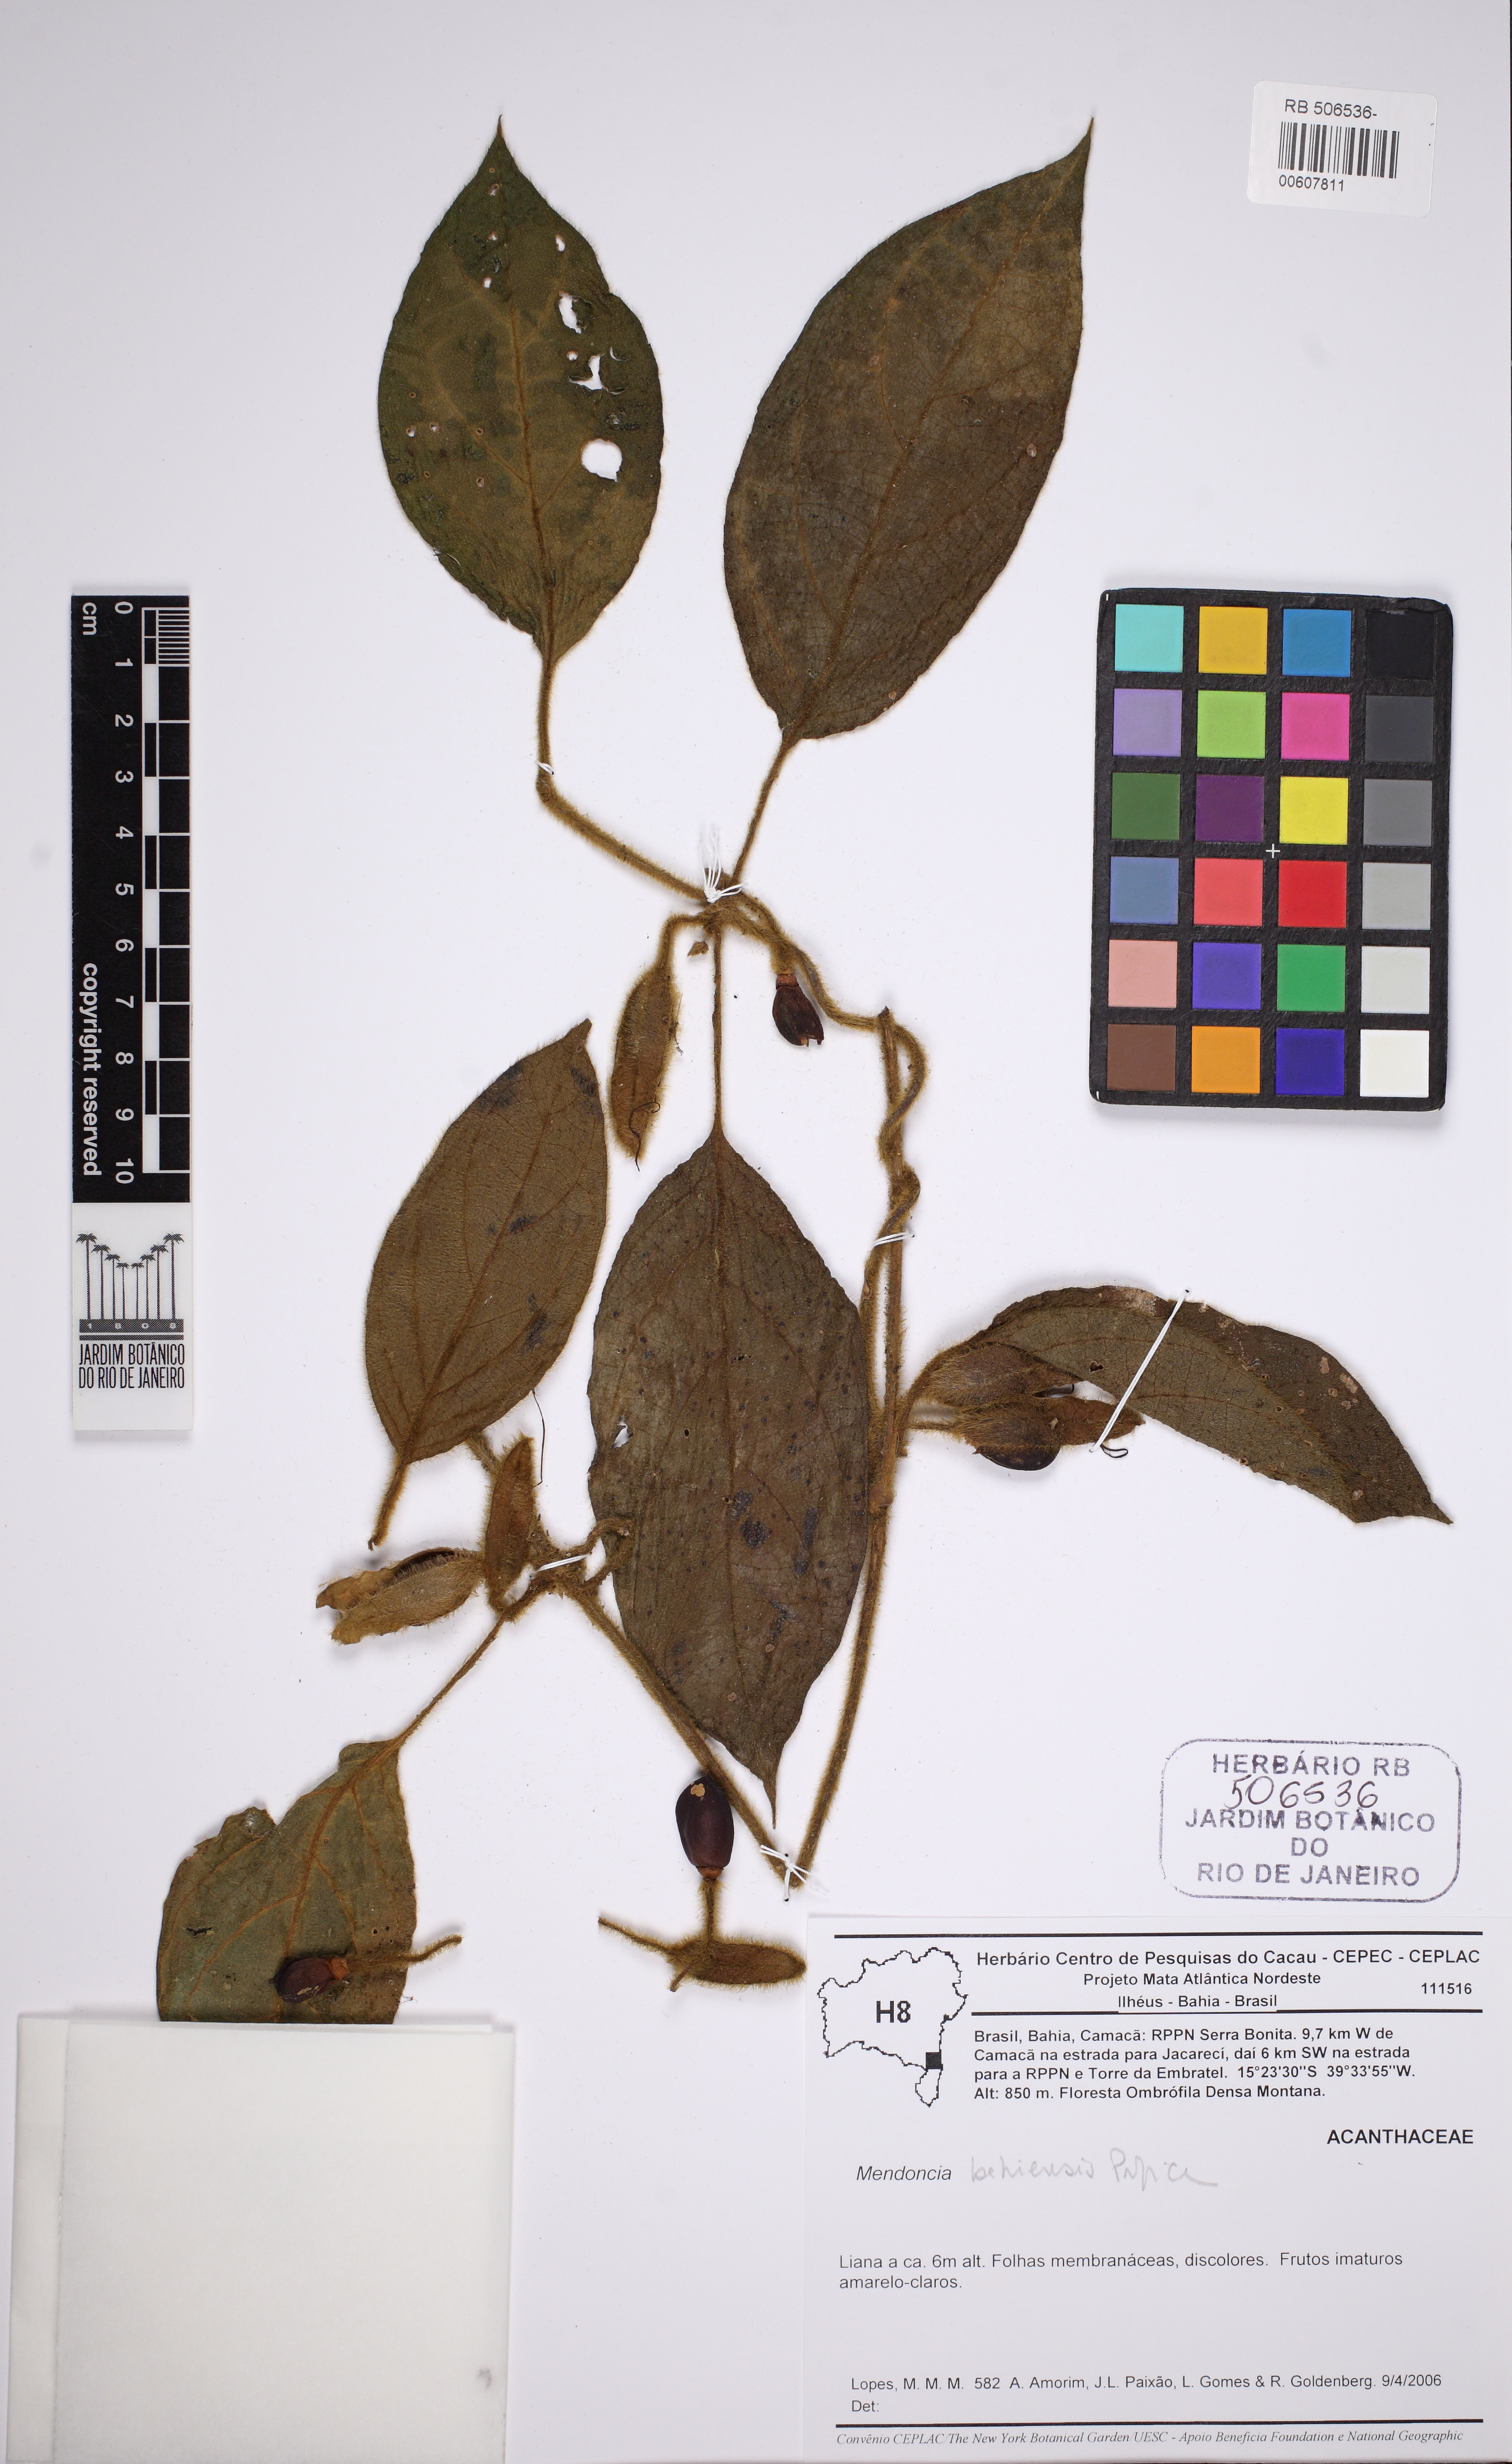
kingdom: Plantae
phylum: Tracheophyta
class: Magnoliopsida
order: Lamiales
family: Acanthaceae
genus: Mendoncia
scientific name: Mendoncia bahiensis
